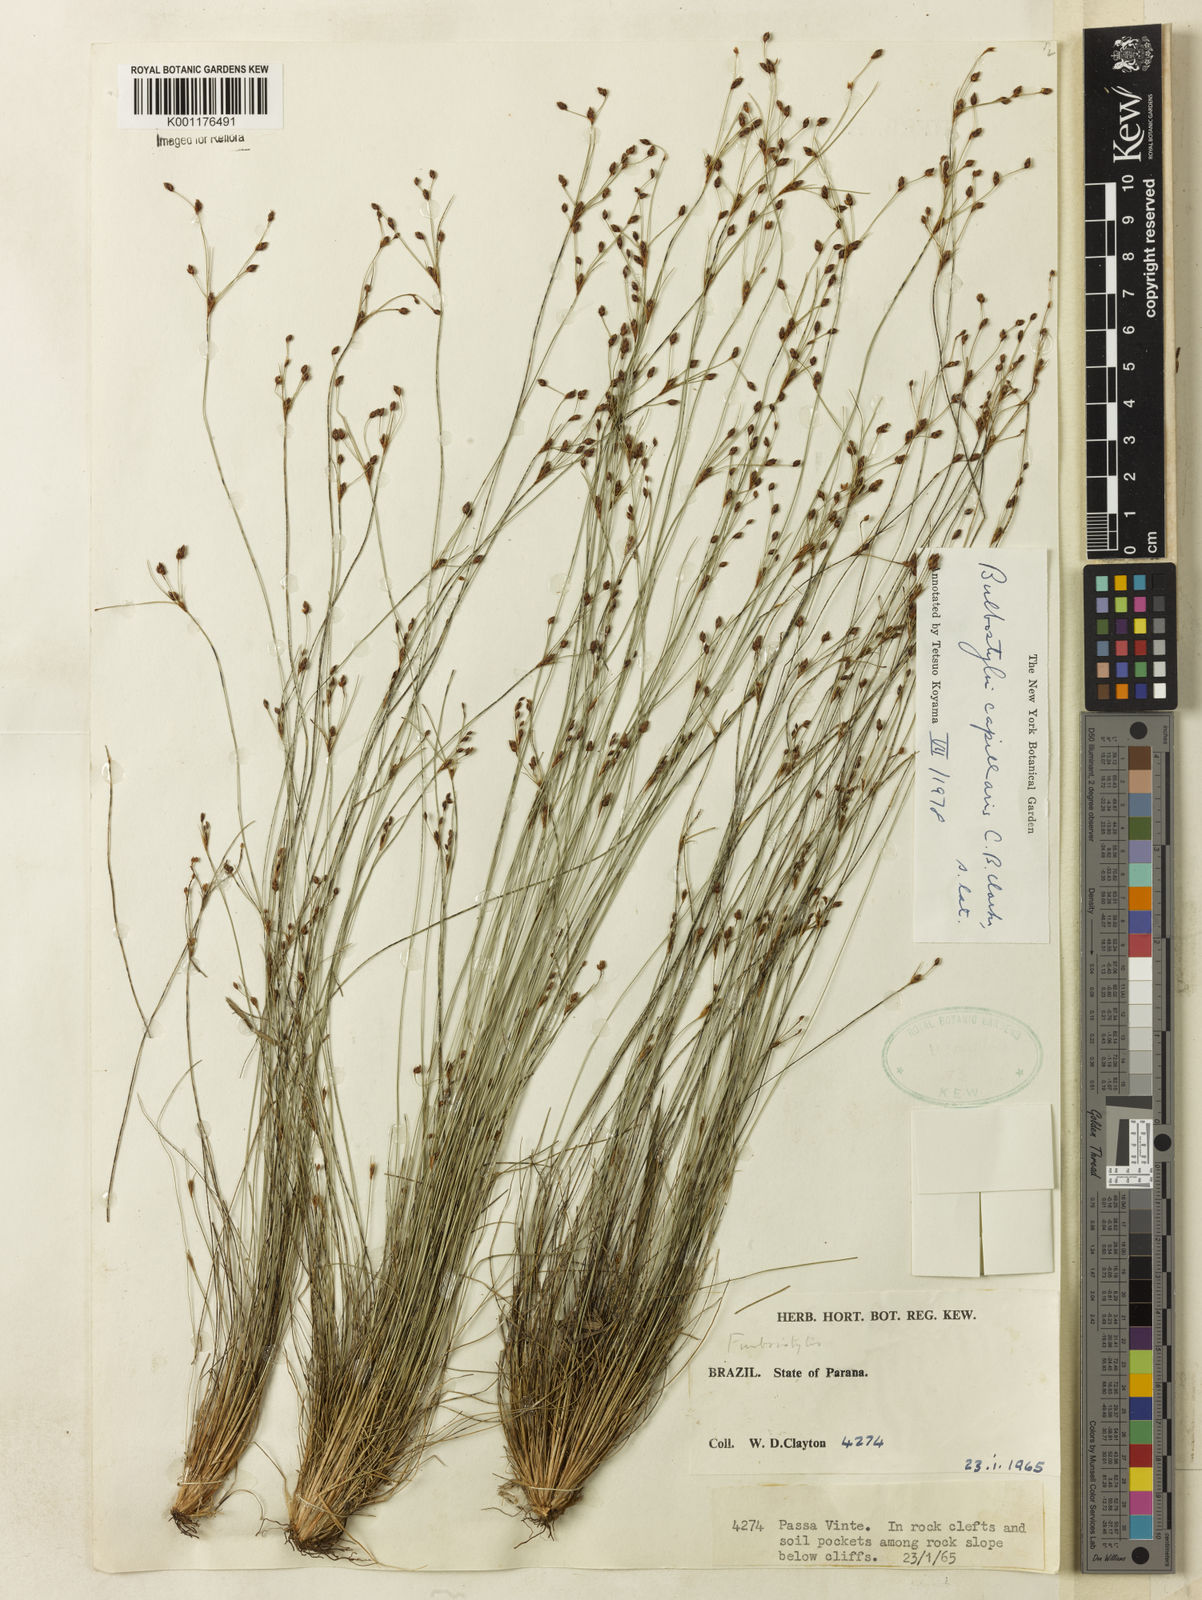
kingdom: Plantae
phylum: Tracheophyta
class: Liliopsida
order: Poales
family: Cyperaceae
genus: Bulbostylis
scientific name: Bulbostylis capillaris
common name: Densetuft hairsedge
